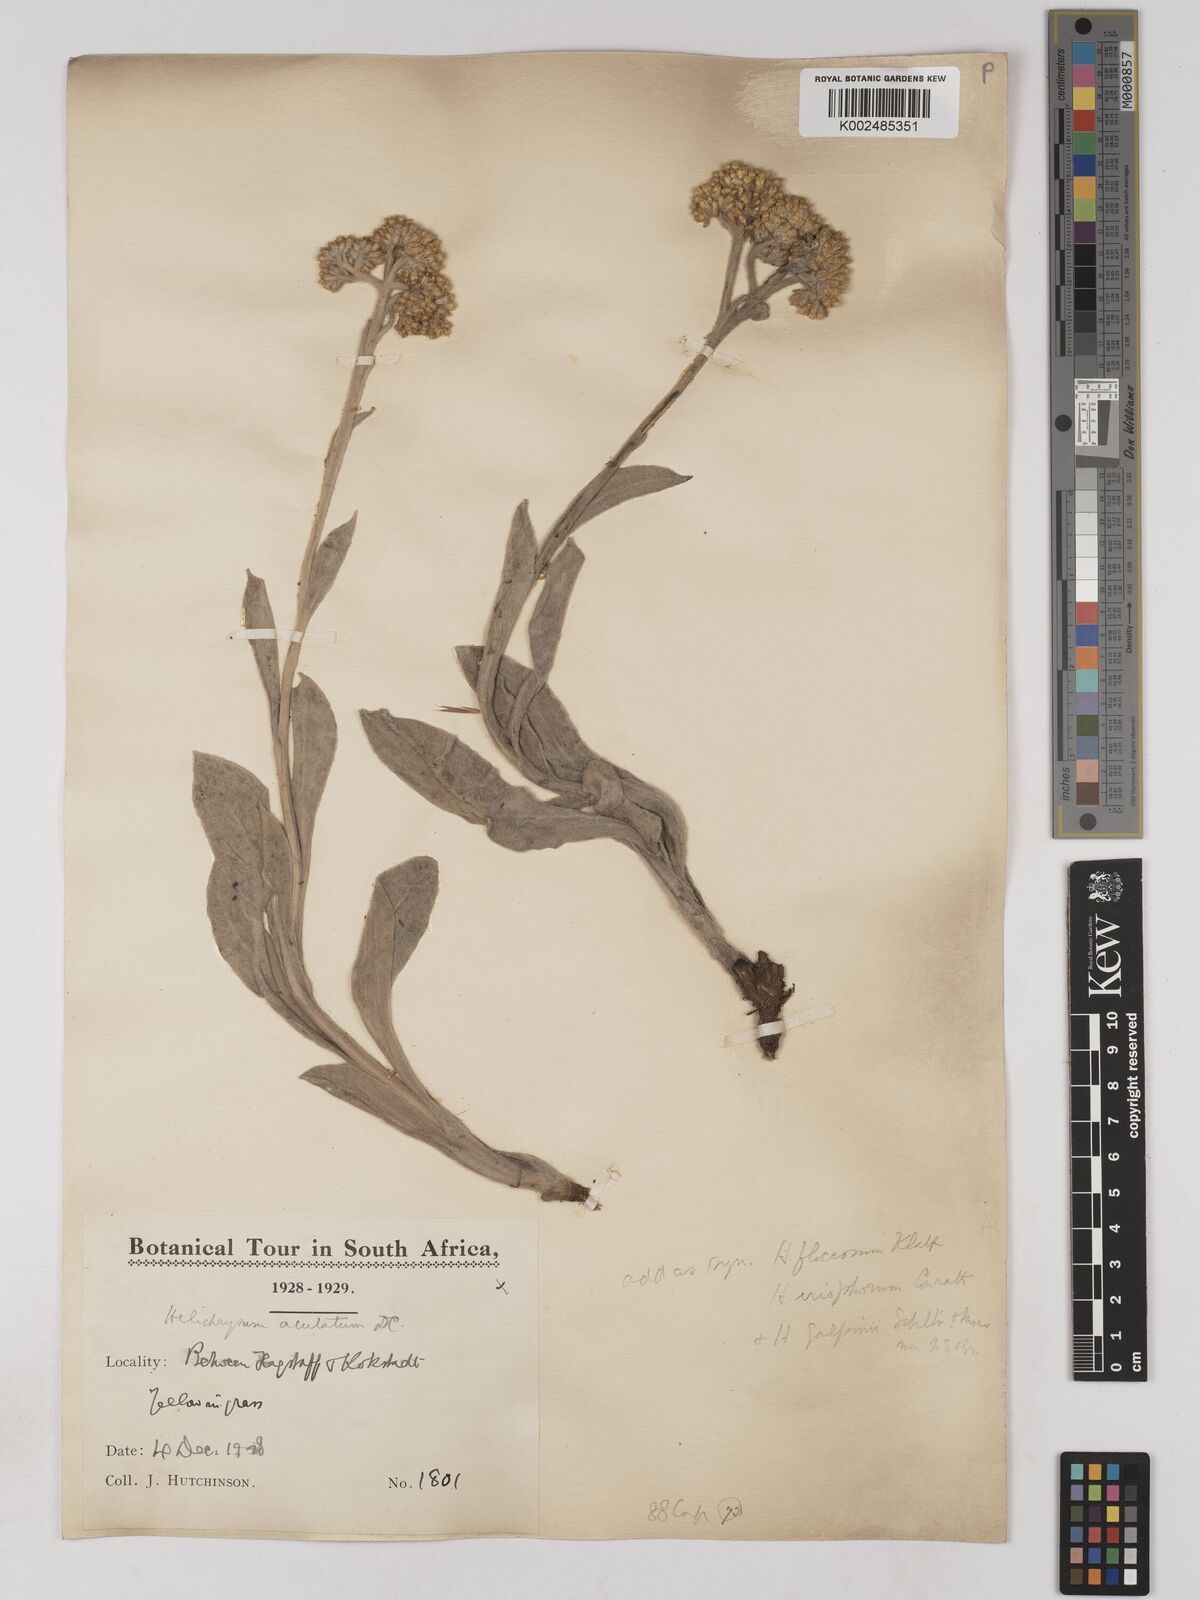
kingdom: Plantae
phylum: Tracheophyta
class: Magnoliopsida
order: Asterales
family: Asteraceae
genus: Helichrysum
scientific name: Helichrysum acutatum
